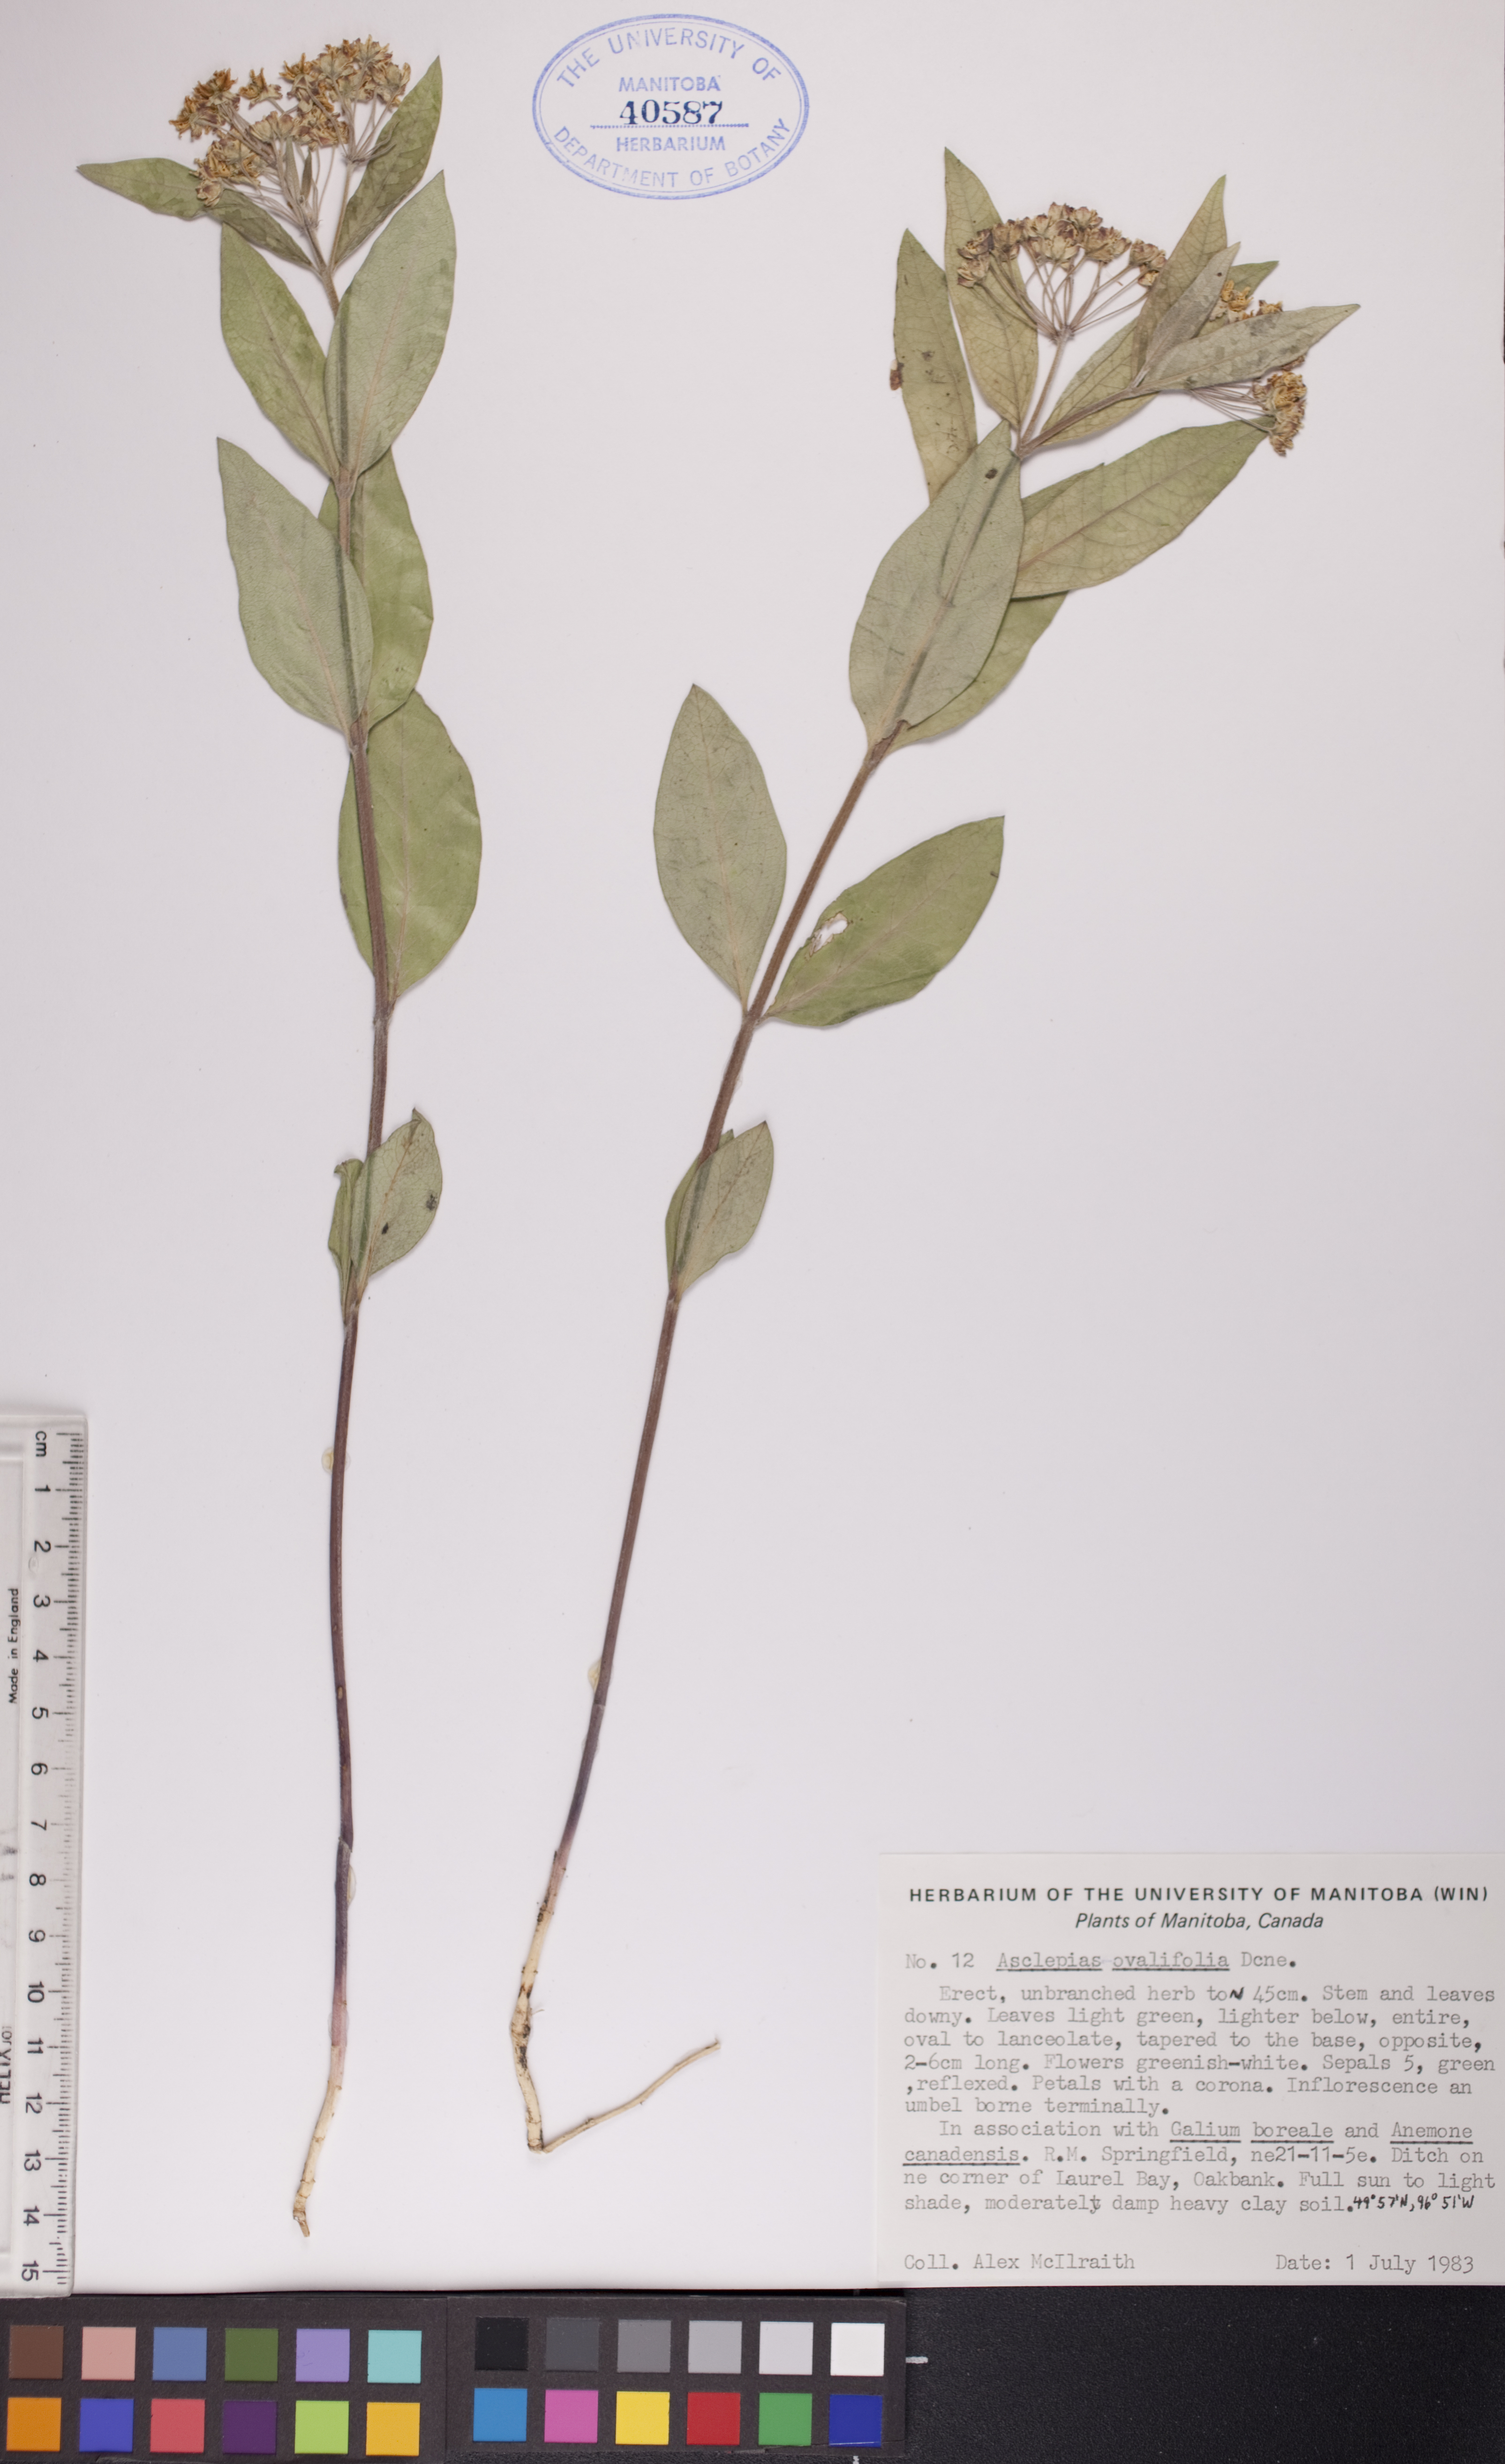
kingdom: Plantae
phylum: Tracheophyta
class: Magnoliopsida
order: Gentianales
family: Apocynaceae
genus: Asclepias
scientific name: Asclepias ovalifolia
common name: Dwarf milkweed
